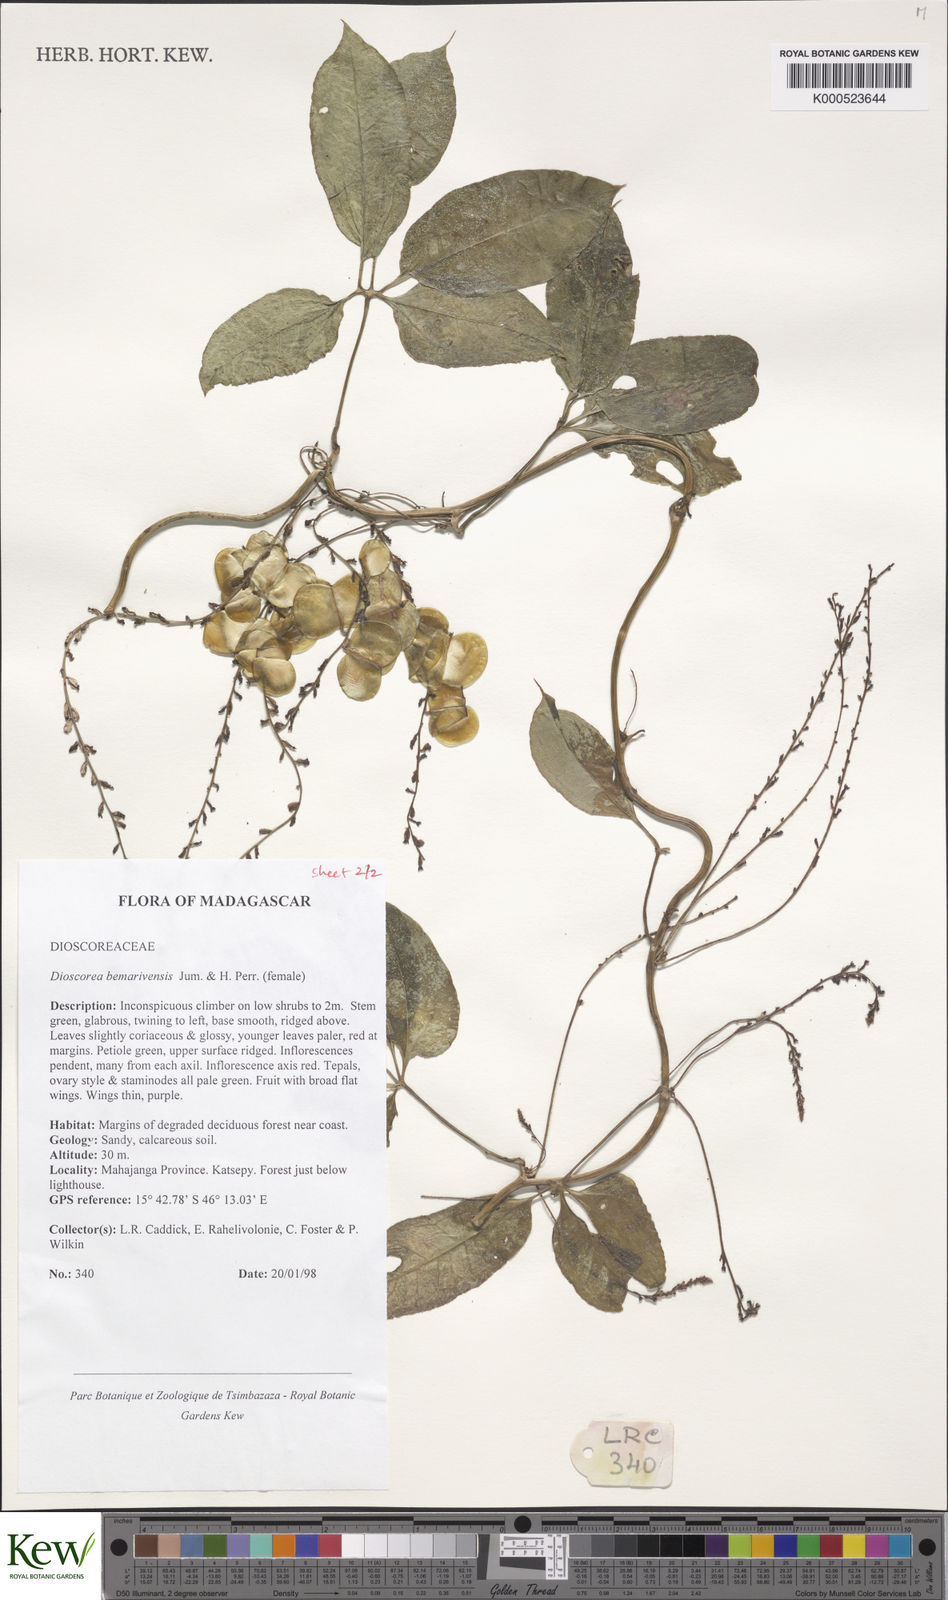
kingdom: Plantae
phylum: Tracheophyta
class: Liliopsida
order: Dioscoreales
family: Dioscoreaceae
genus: Dioscorea
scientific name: Dioscorea bemarivensis
